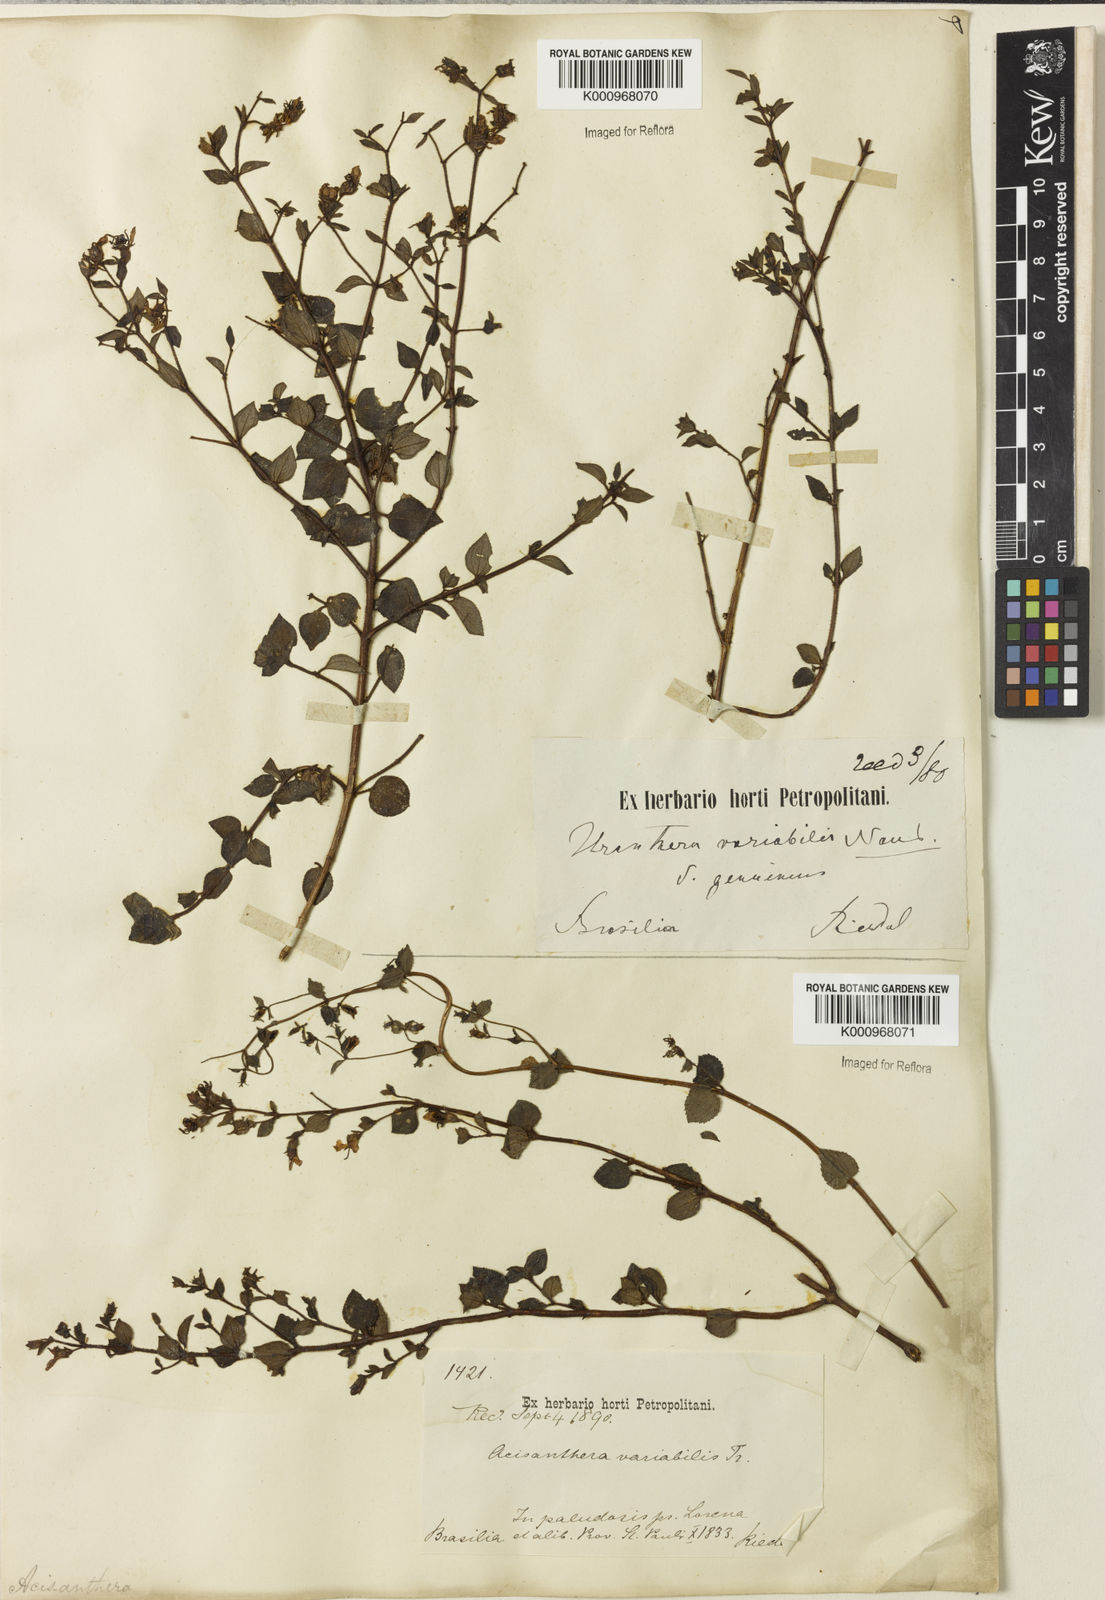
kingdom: Plantae
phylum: Tracheophyta
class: Magnoliopsida
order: Myrtales
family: Melastomataceae
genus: Acisanthera
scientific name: Acisanthera variabilis
